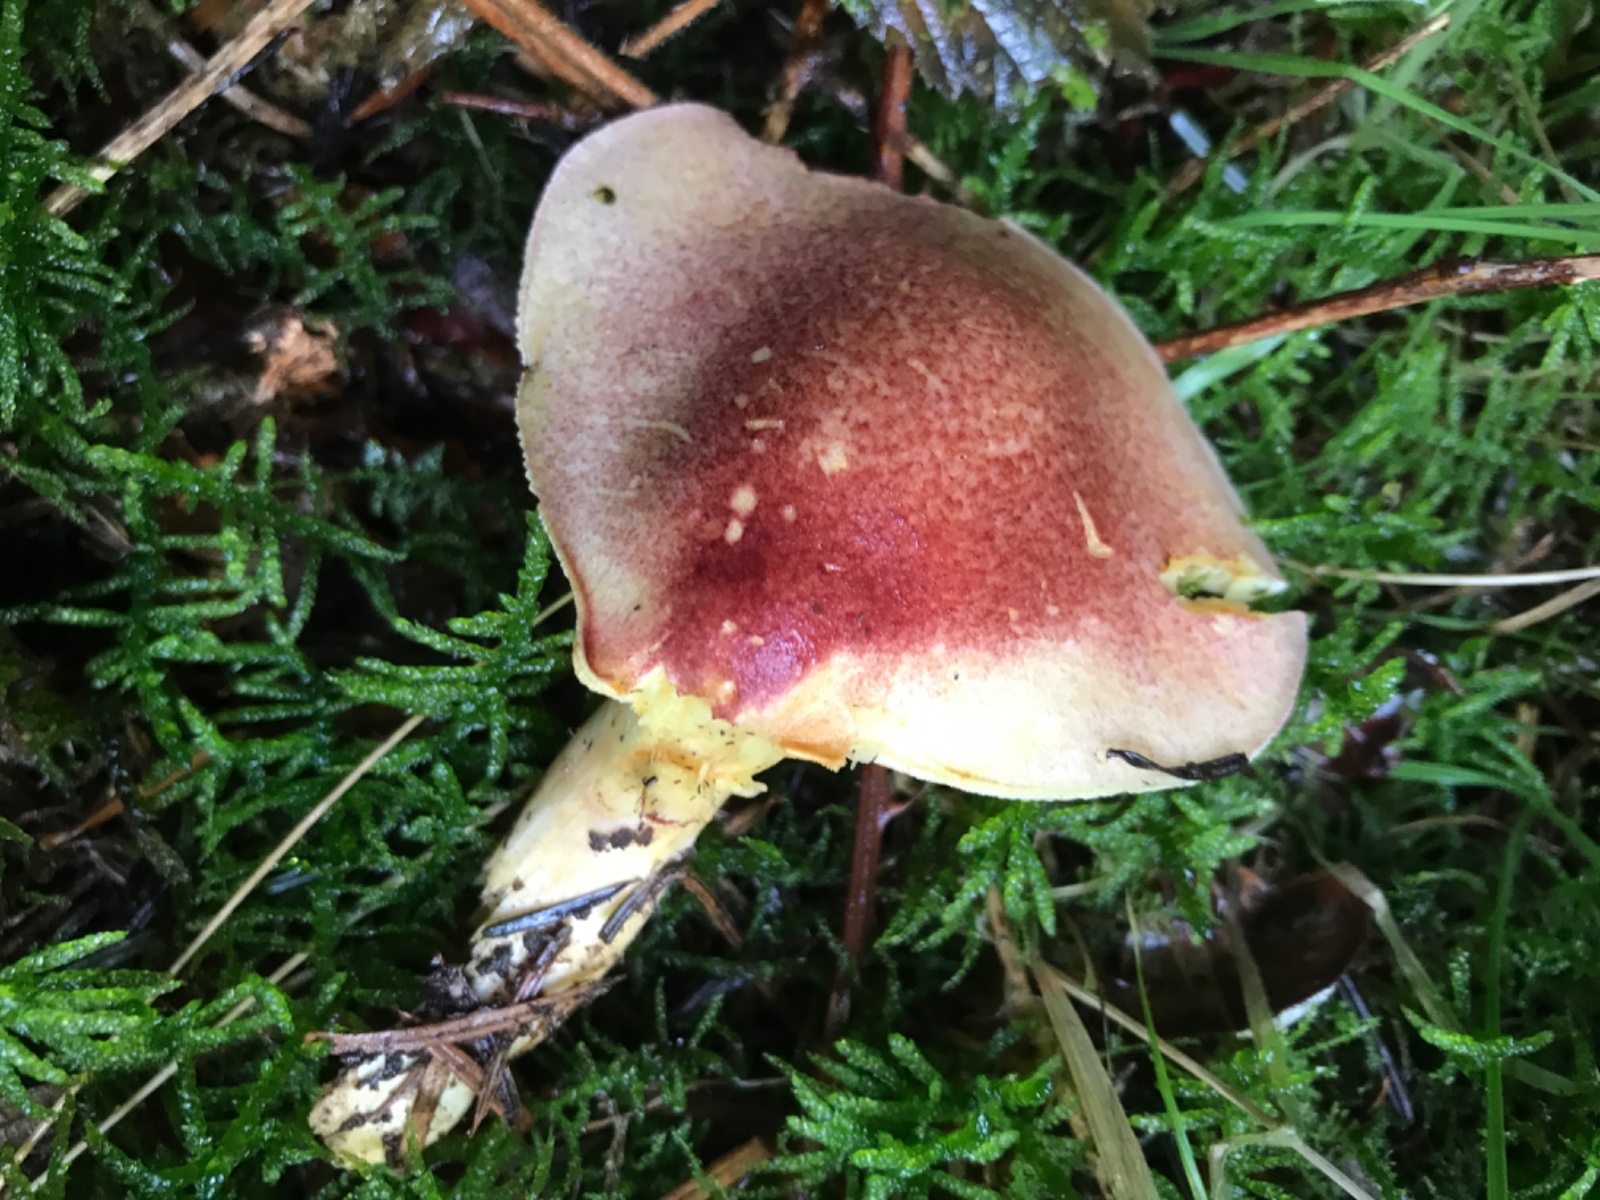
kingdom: Fungi
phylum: Basidiomycota
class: Agaricomycetes
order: Agaricales
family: Tricholomataceae
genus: Tricholomopsis
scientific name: Tricholomopsis rutilans
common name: purpur-væbnerhat
